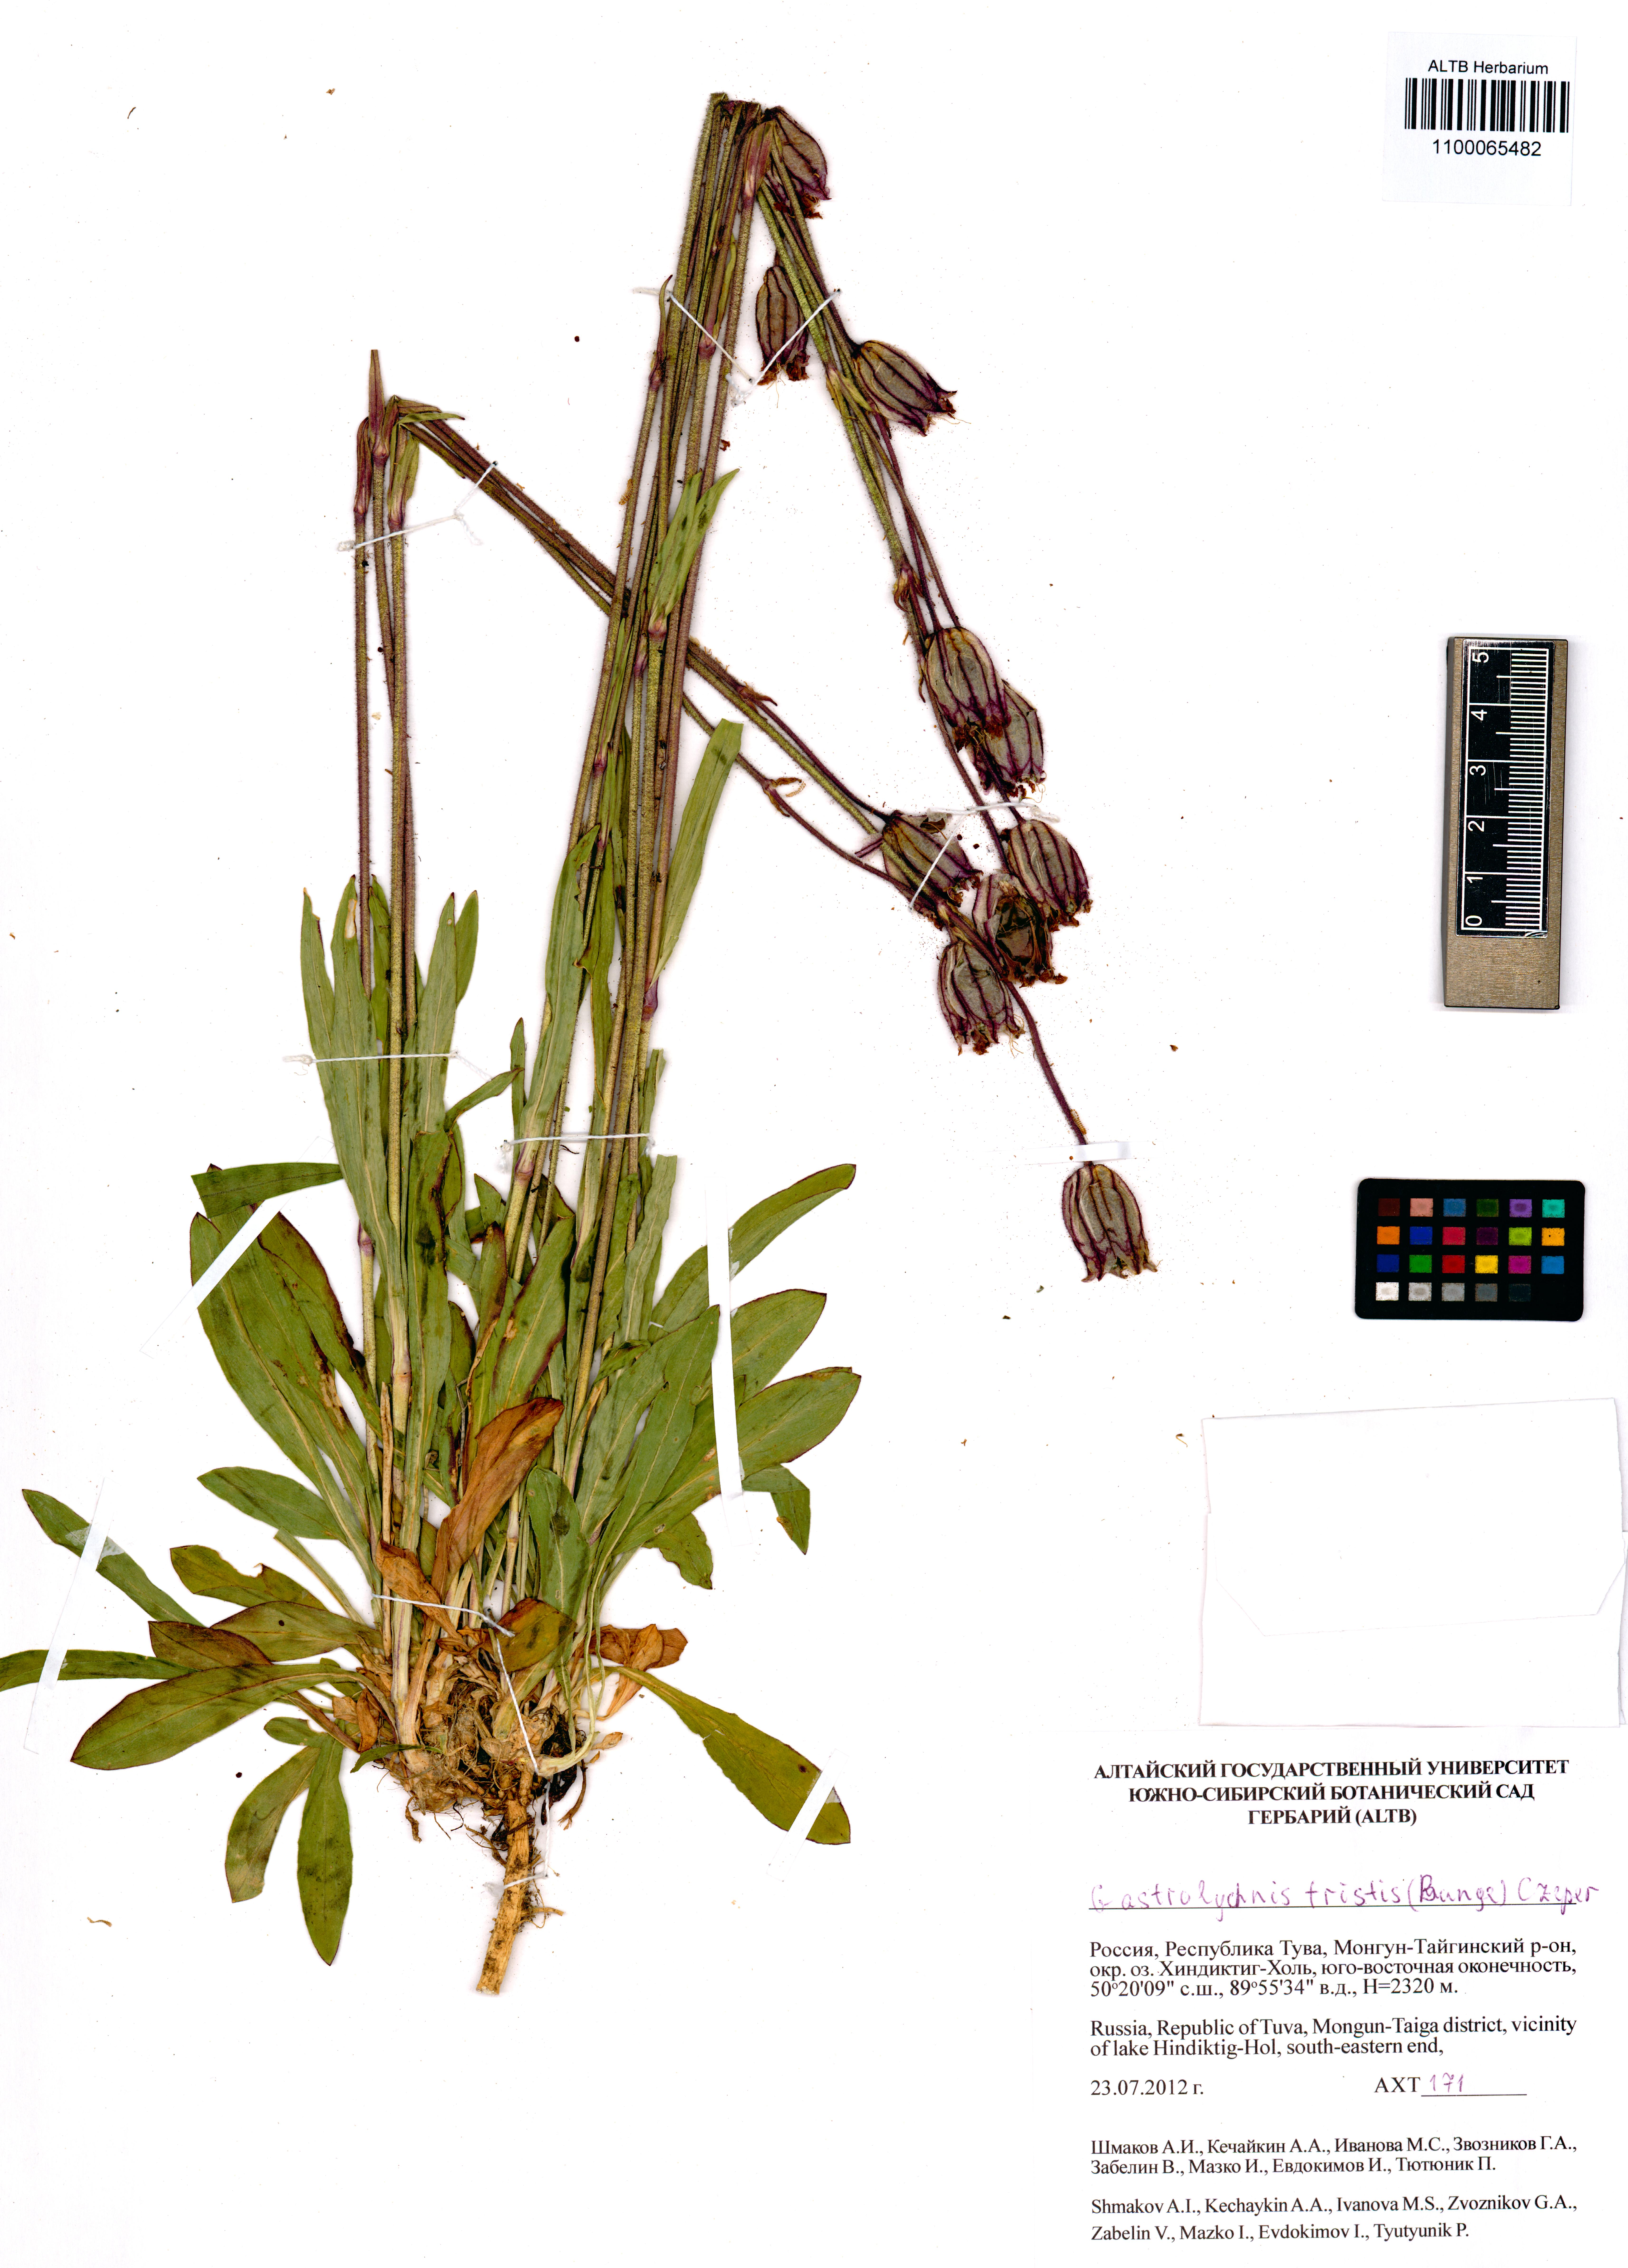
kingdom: Plantae
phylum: Tracheophyta
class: Magnoliopsida
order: Caryophyllales
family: Caryophyllaceae
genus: Silene
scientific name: Silene bungei
